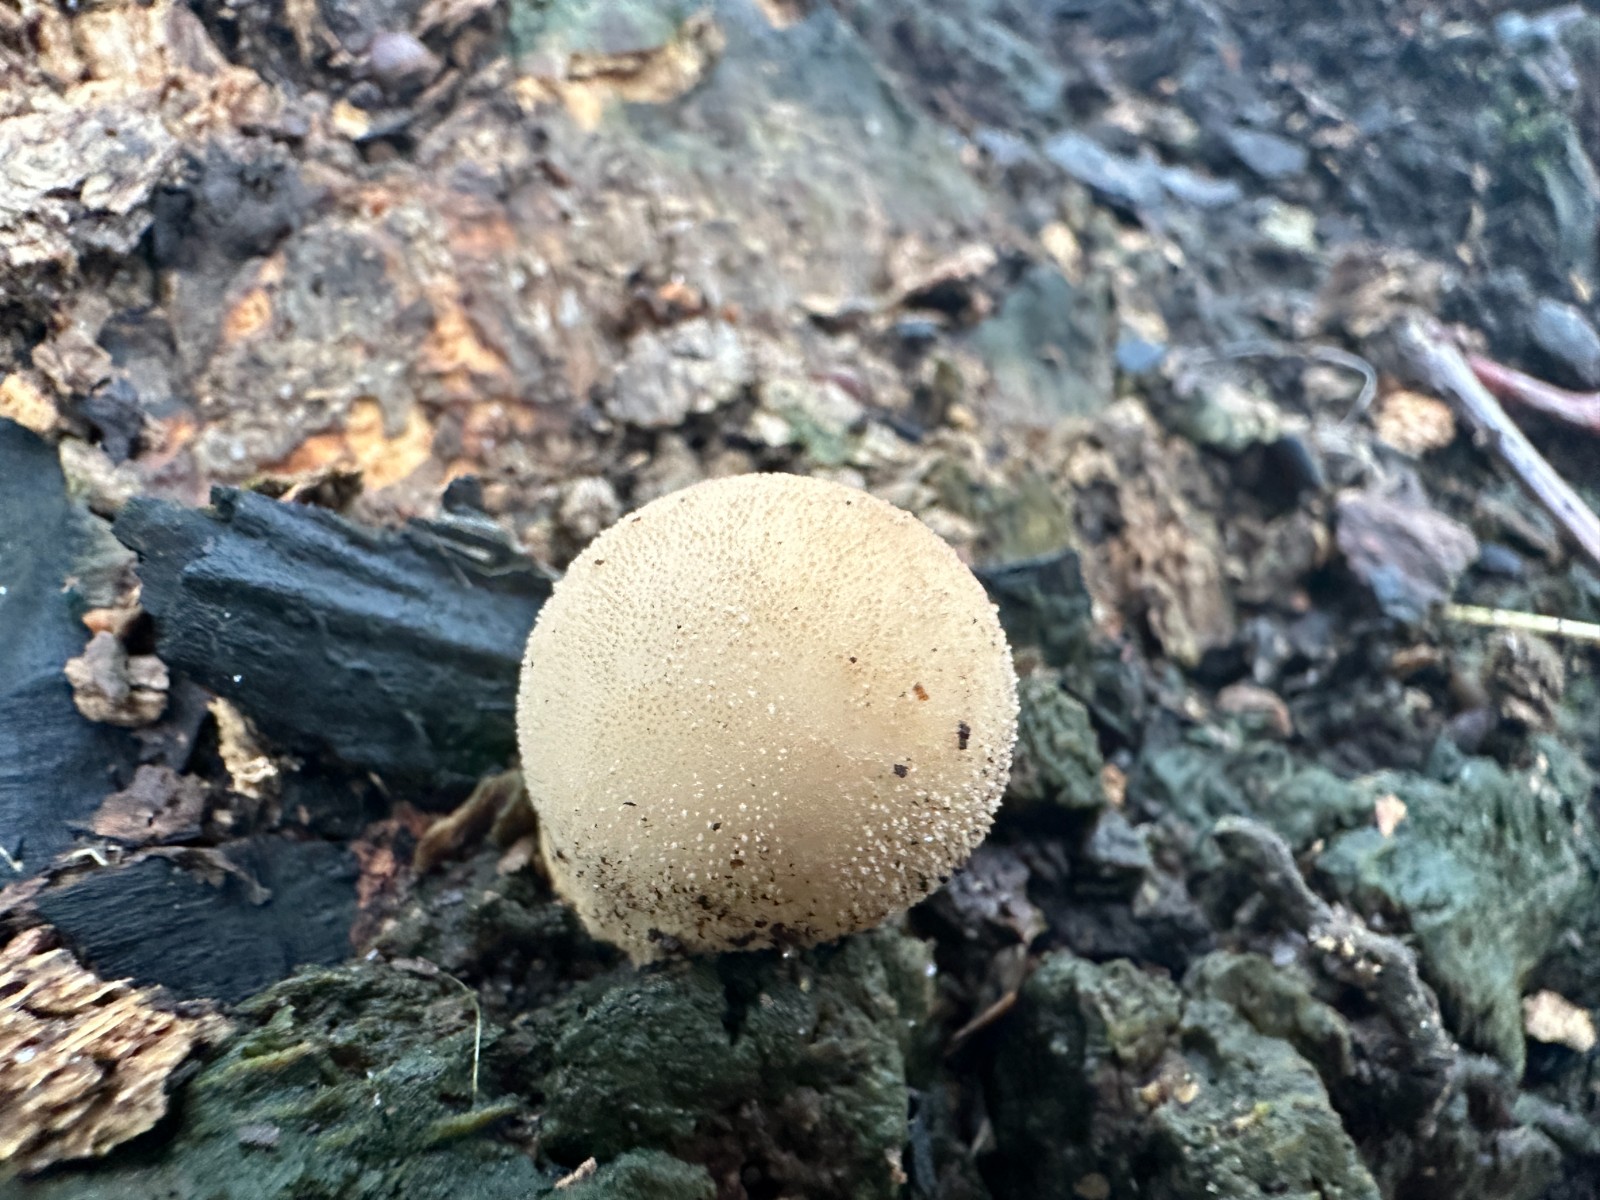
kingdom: Fungi
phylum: Basidiomycota
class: Agaricomycetes
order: Agaricales
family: Lycoperdaceae
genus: Apioperdon
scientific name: Apioperdon pyriforme
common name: pære-støvbold
